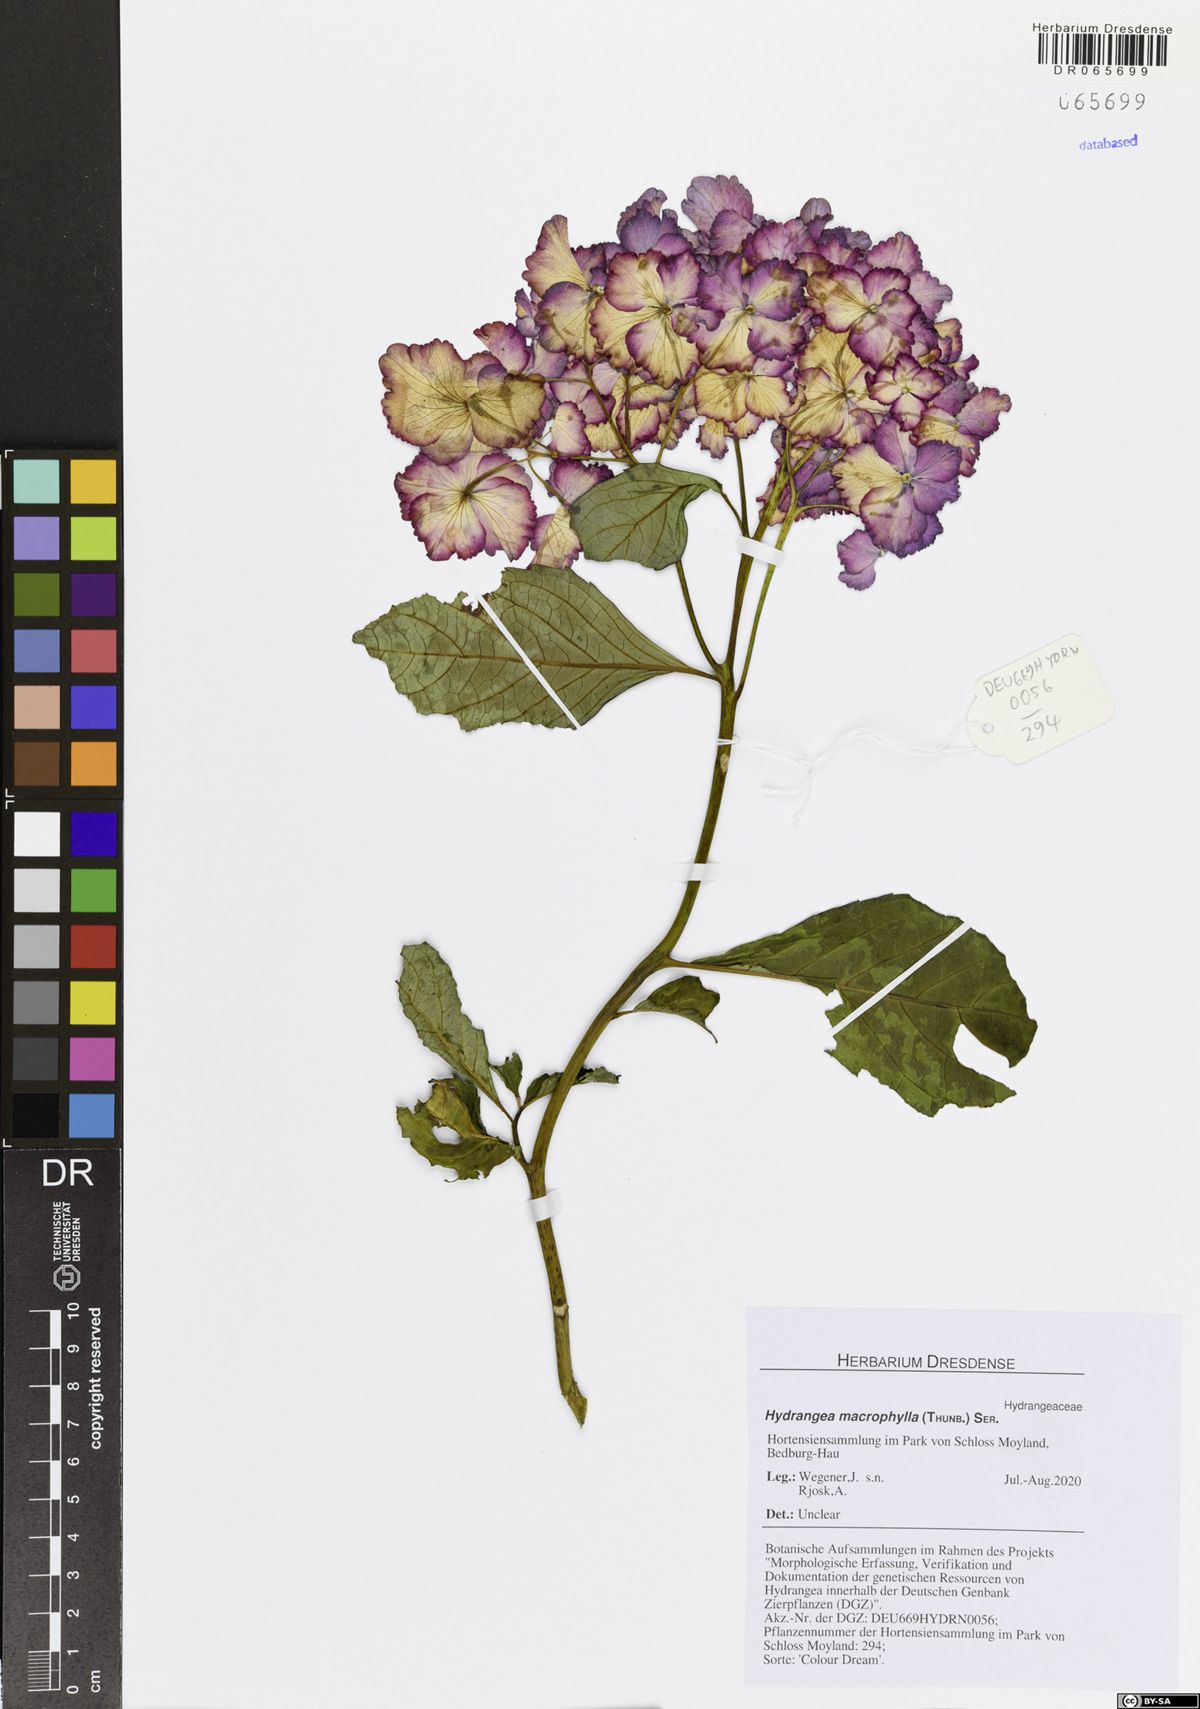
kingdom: Plantae
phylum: Tracheophyta
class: Magnoliopsida
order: Cornales
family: Hydrangeaceae
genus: Hydrangea
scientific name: Hydrangea macrophylla
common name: Hydrangea
